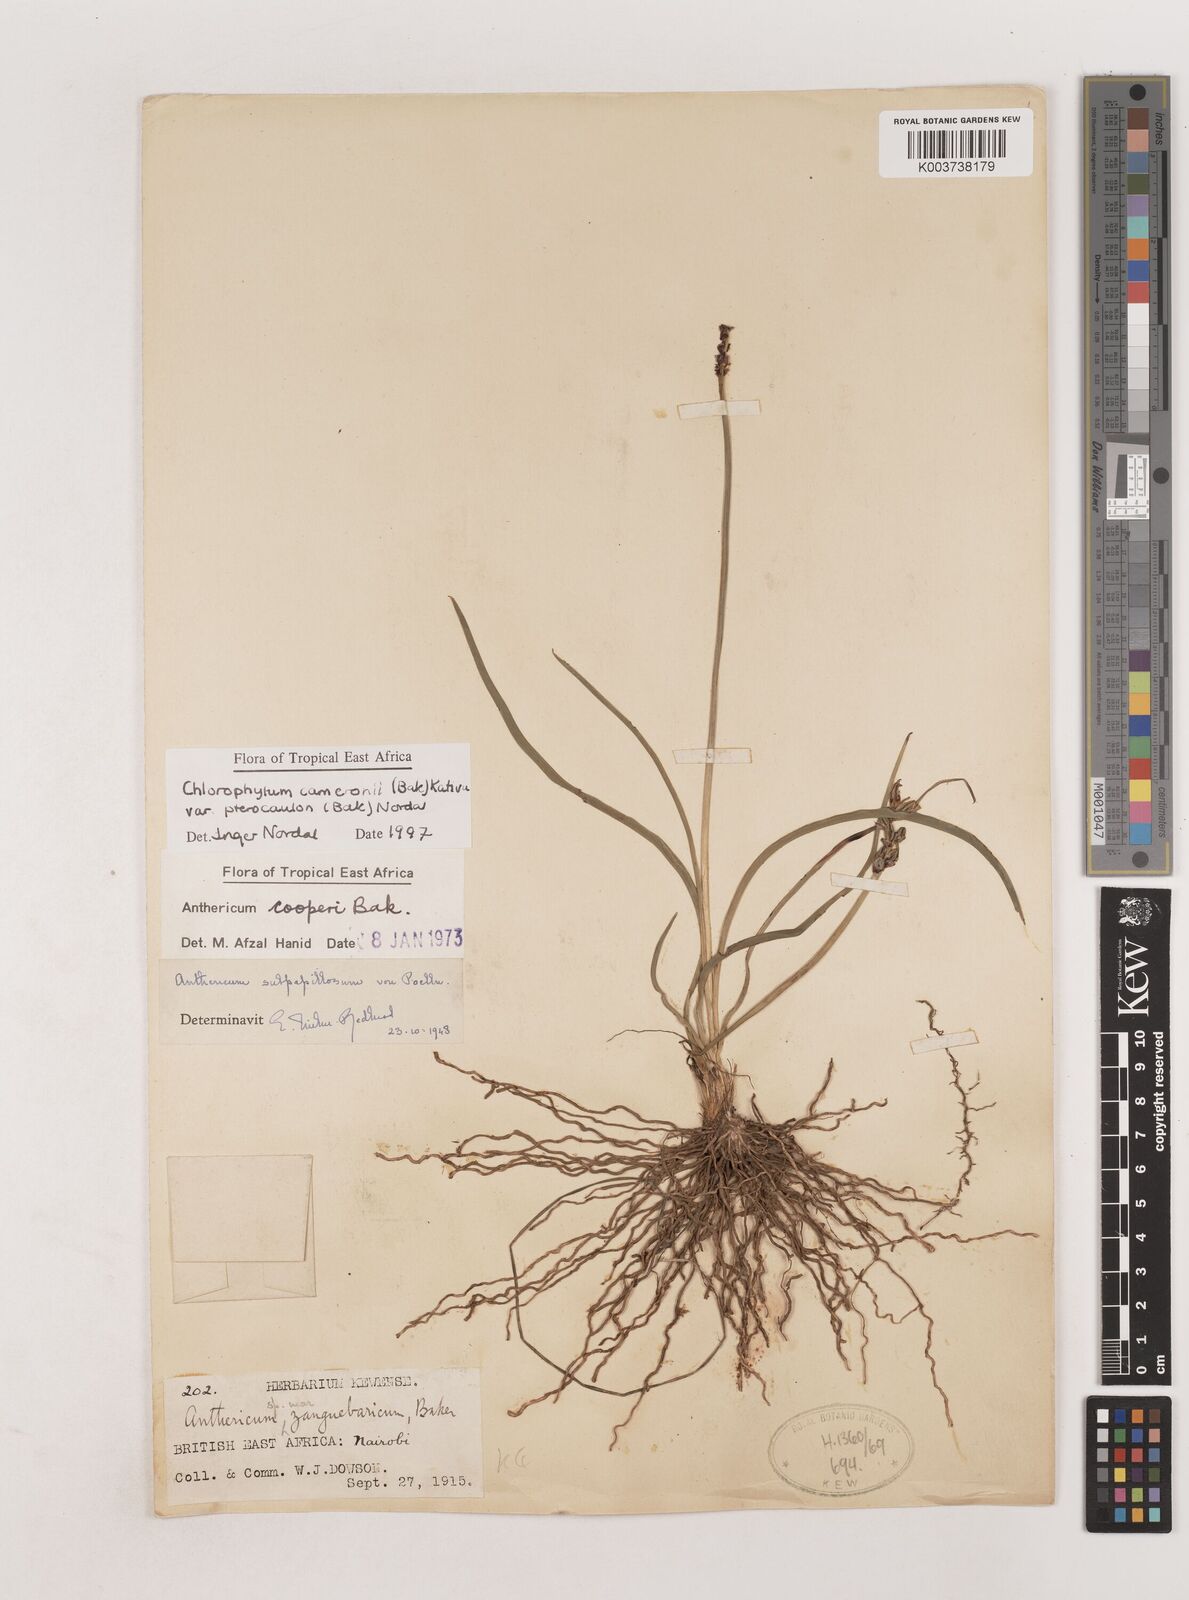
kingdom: Plantae
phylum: Tracheophyta
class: Liliopsida
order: Asparagales
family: Asparagaceae
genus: Chlorophytum
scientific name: Chlorophytum cameronii
